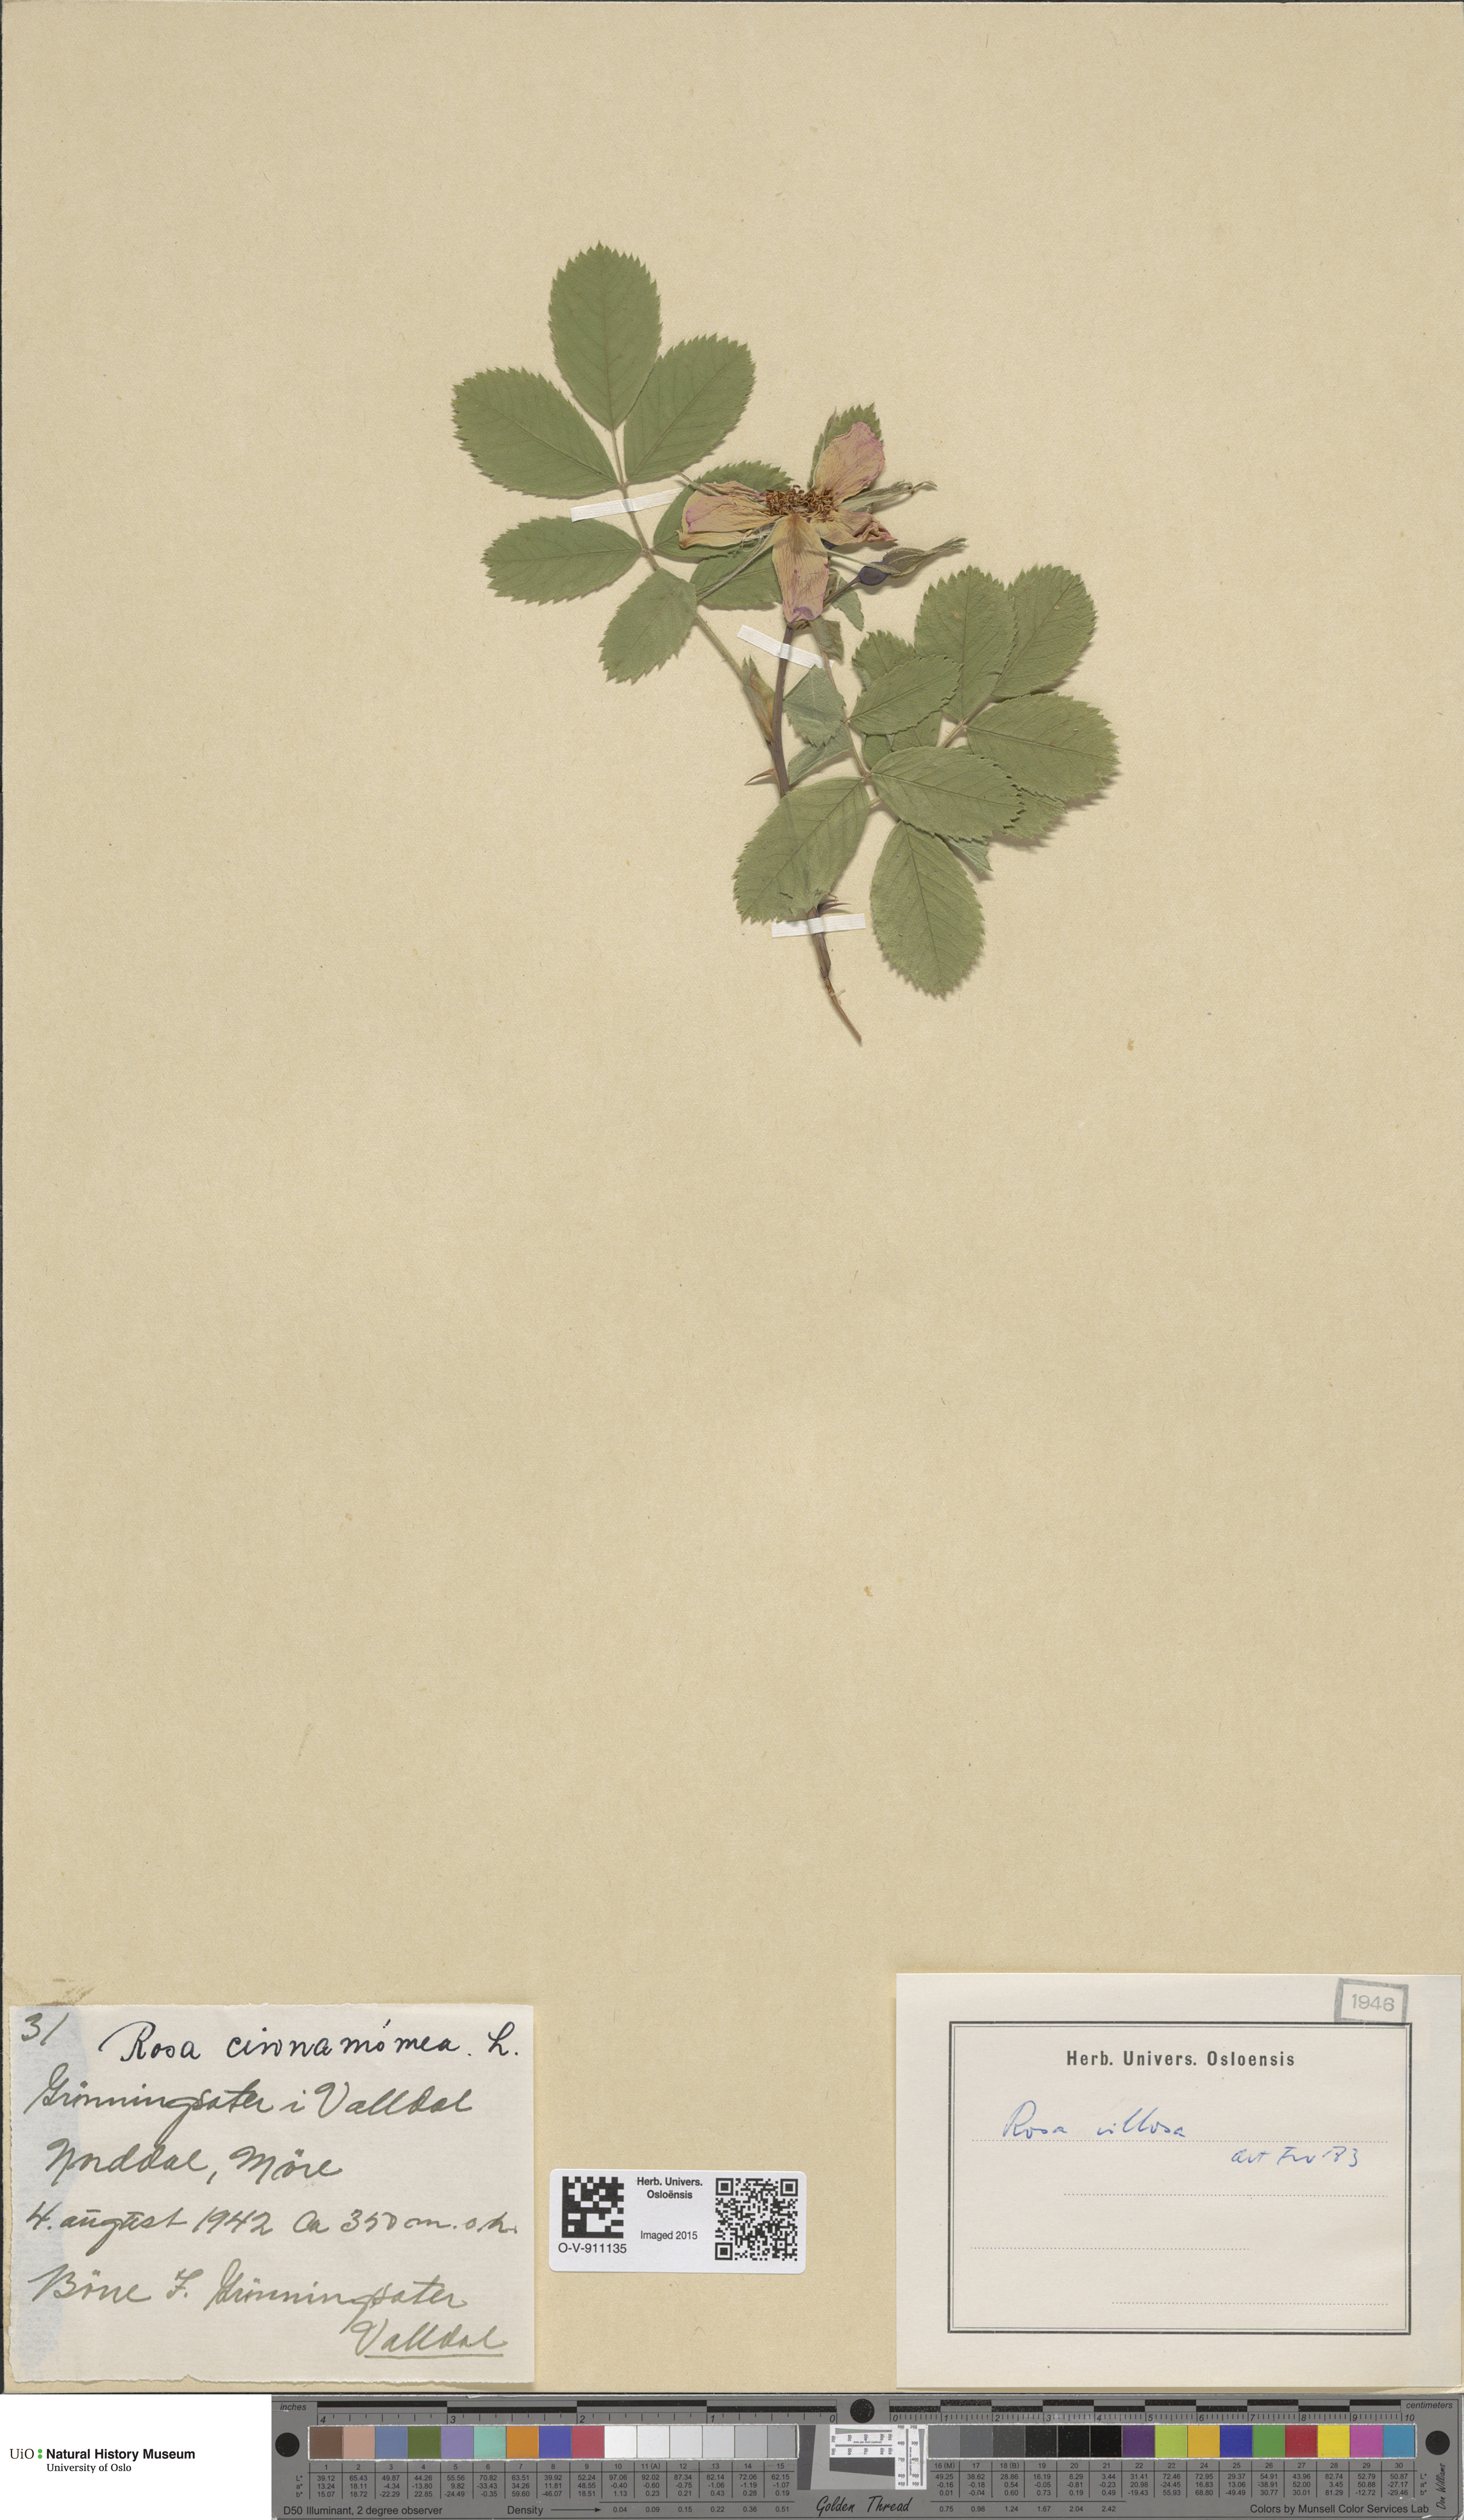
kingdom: Plantae
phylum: Tracheophyta
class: Magnoliopsida
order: Rosales
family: Rosaceae
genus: Rosa
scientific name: Rosa villosa
